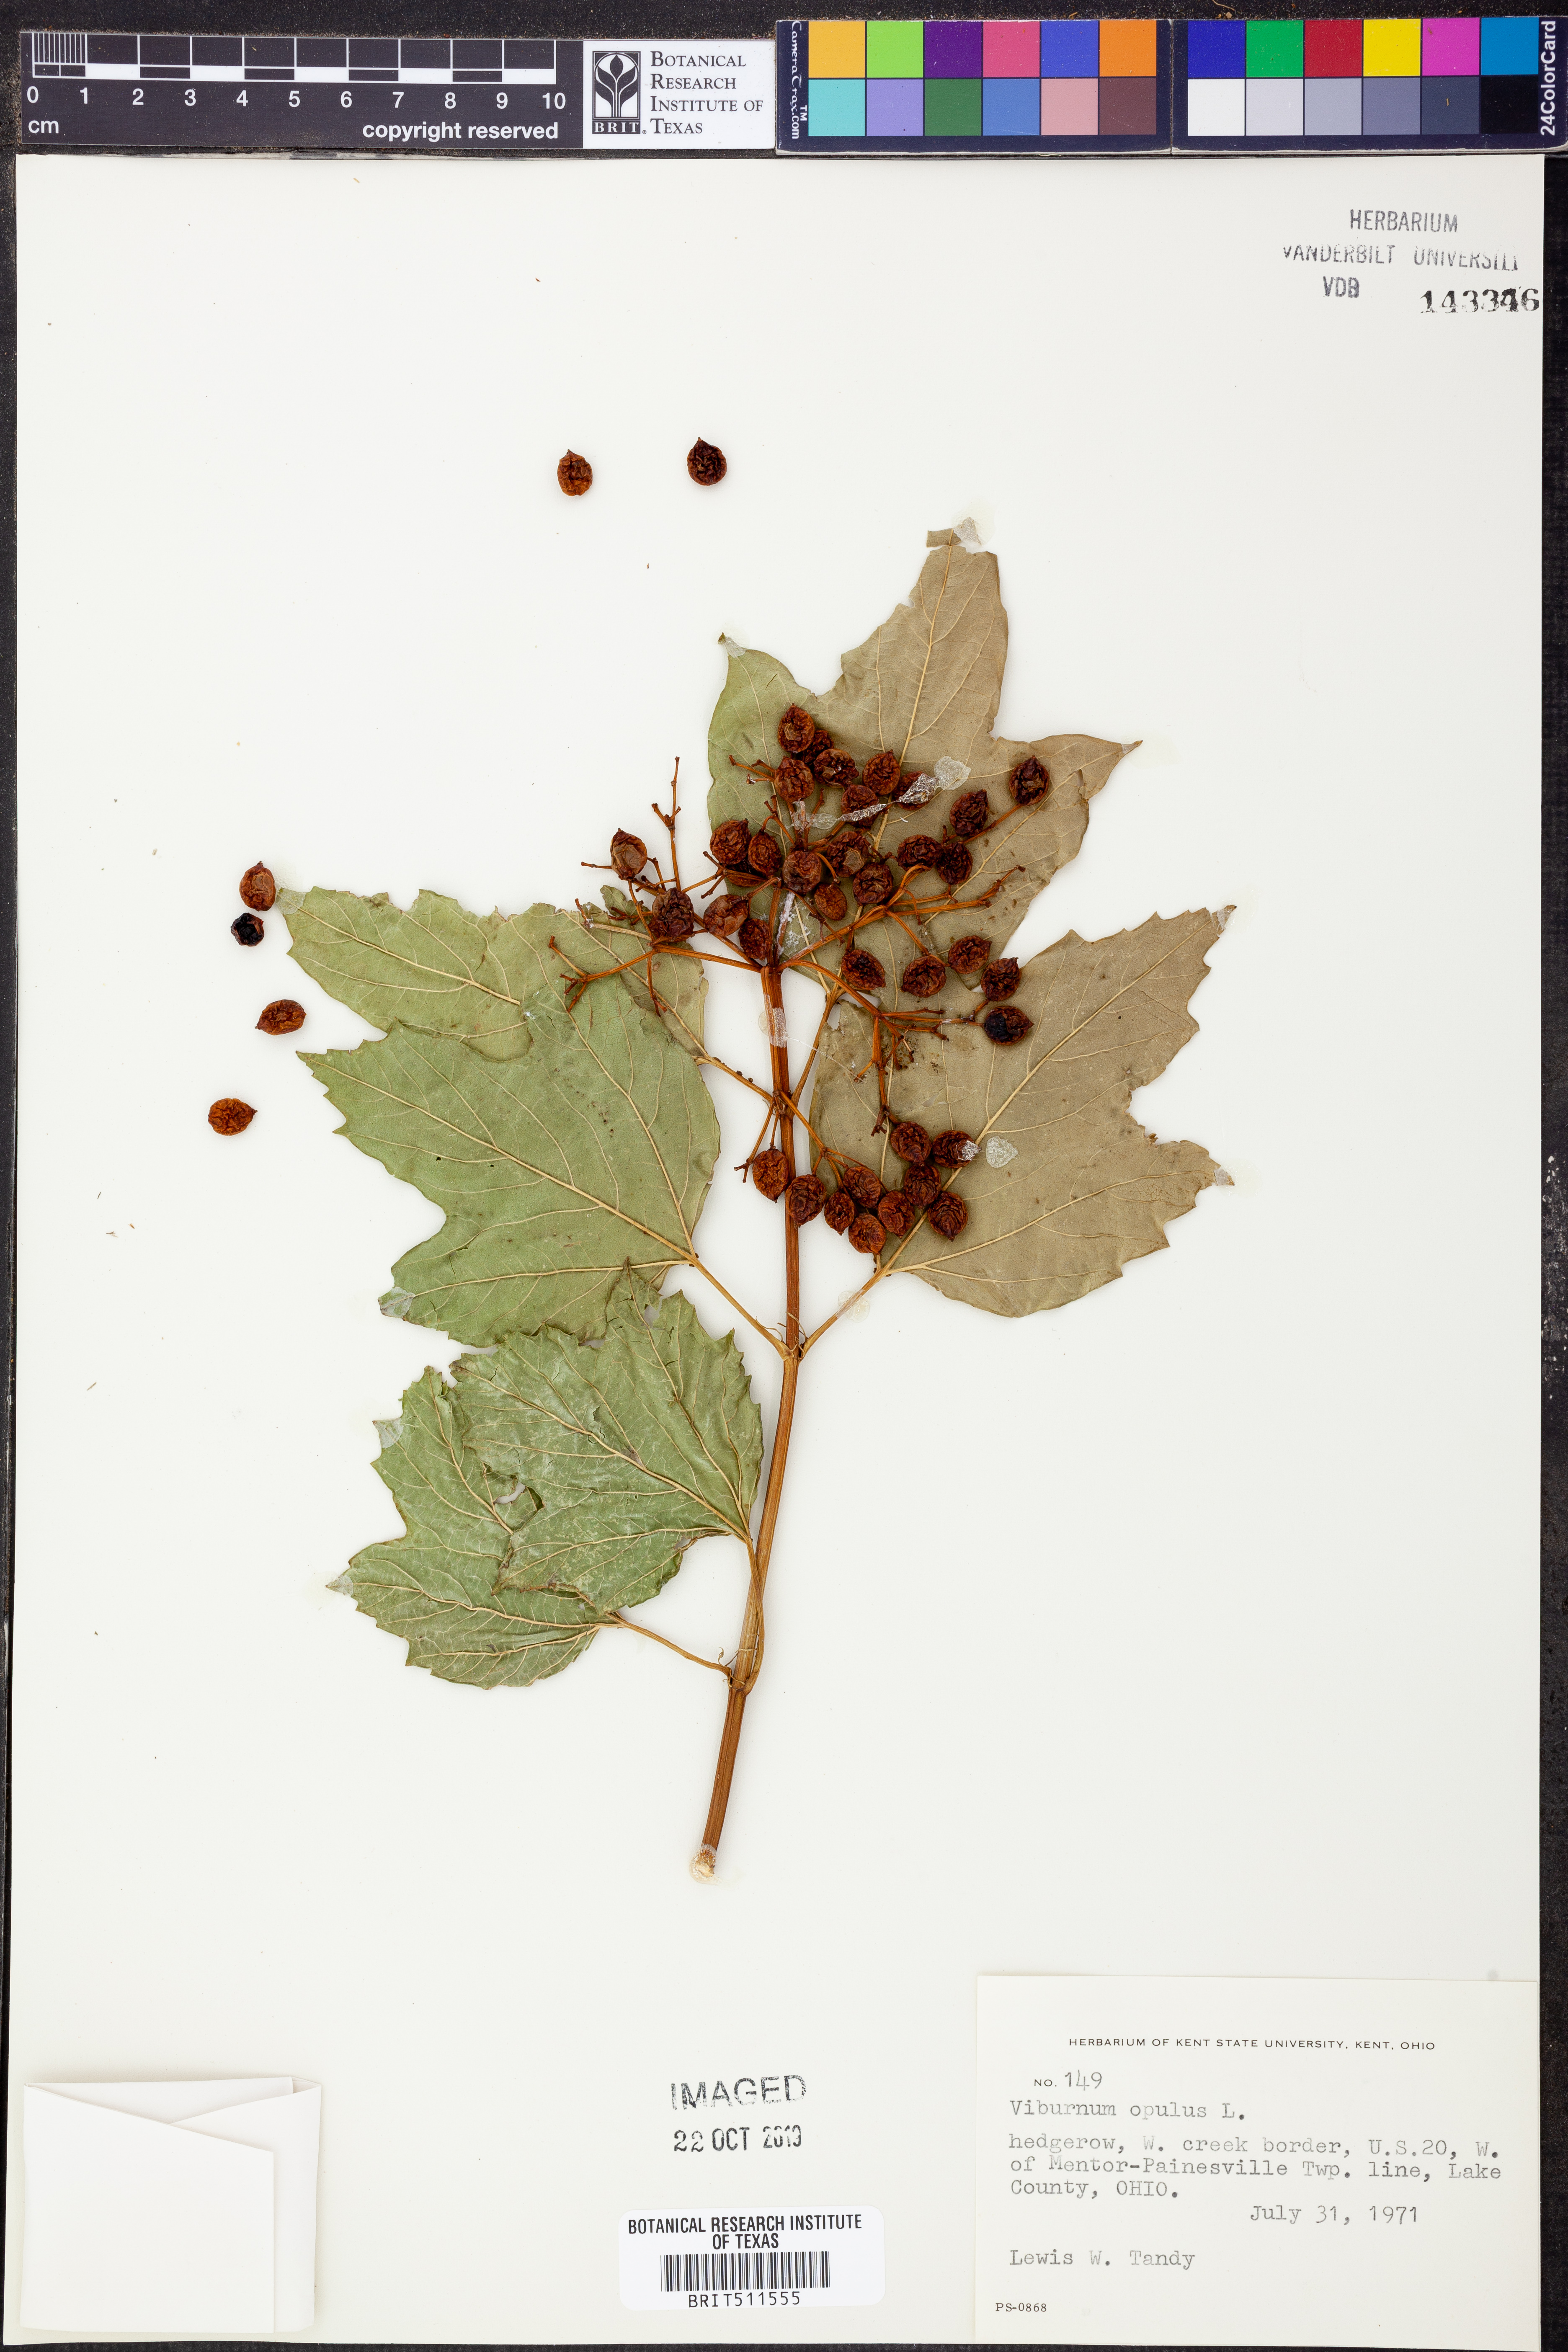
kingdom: Plantae
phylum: Tracheophyta
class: Magnoliopsida
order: Dipsacales
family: Viburnaceae
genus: Viburnum
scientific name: Viburnum opulus
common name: Guelder-rose
